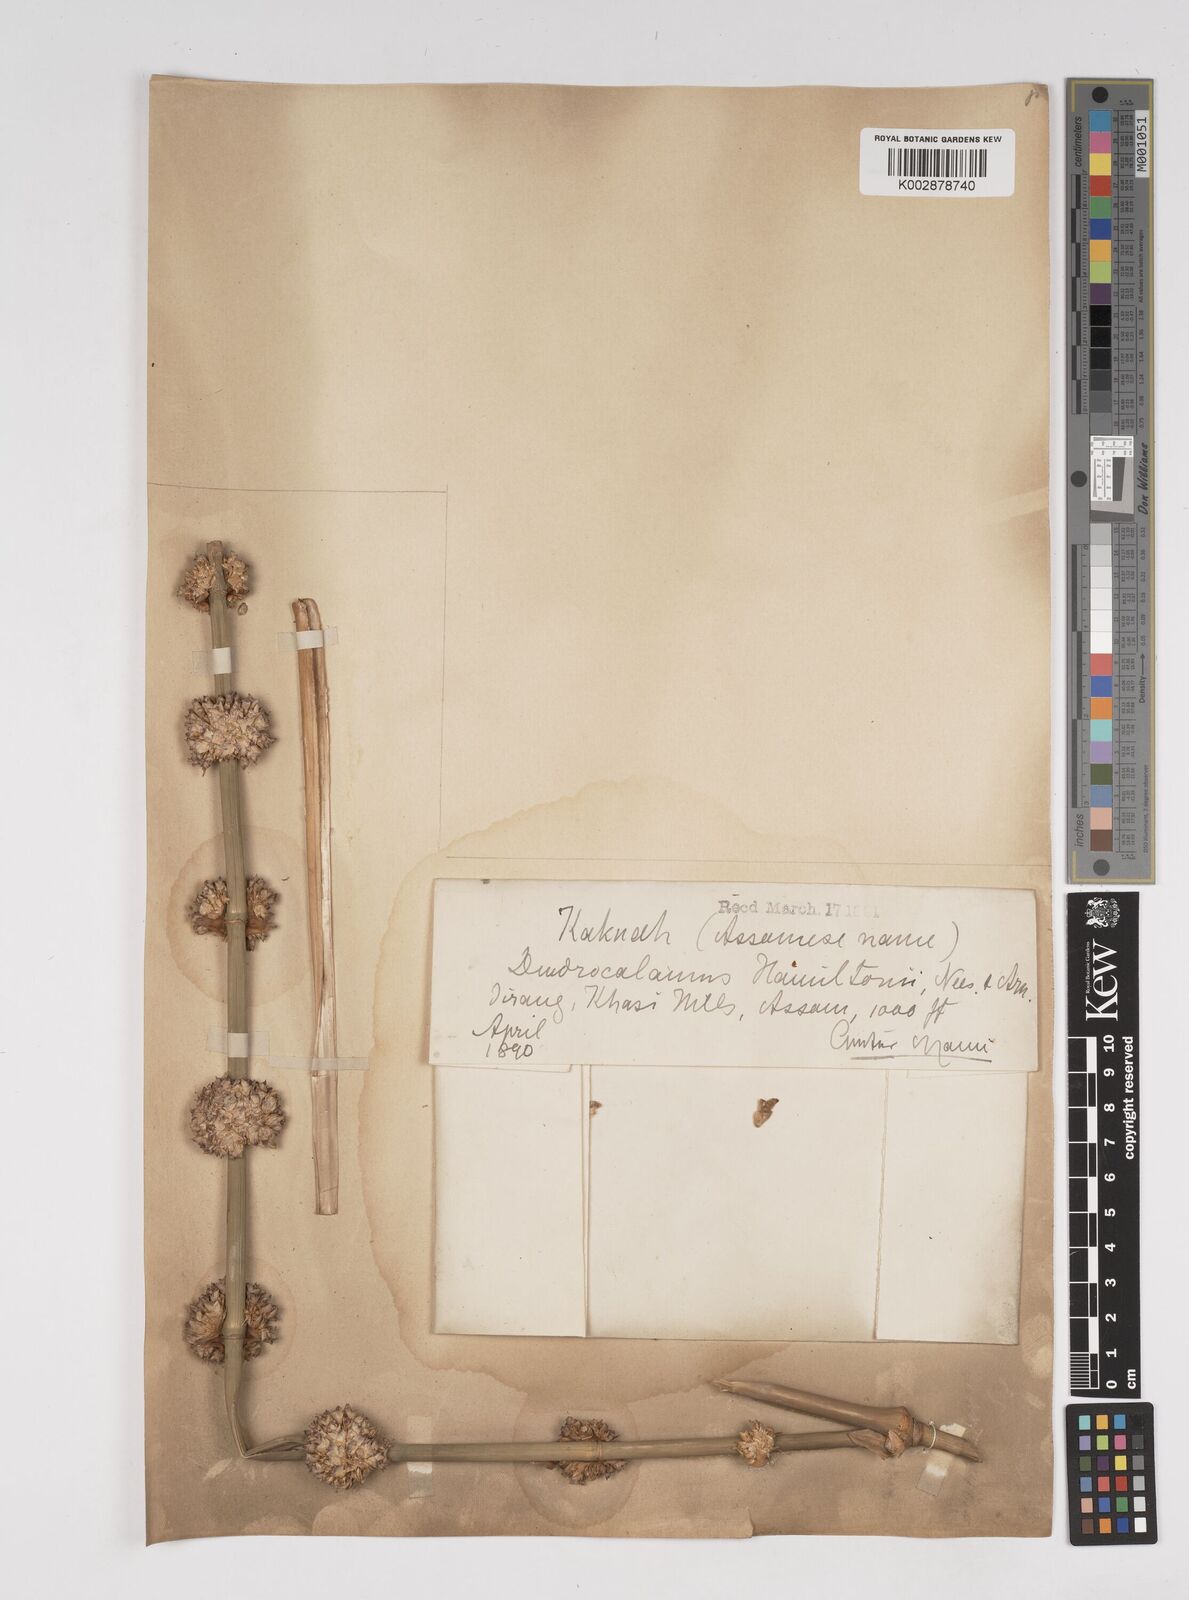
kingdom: Plantae
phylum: Tracheophyta
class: Liliopsida
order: Poales
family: Poaceae
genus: Dendrocalamus
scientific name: Dendrocalamus hamiltonii
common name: Tama bamboo
